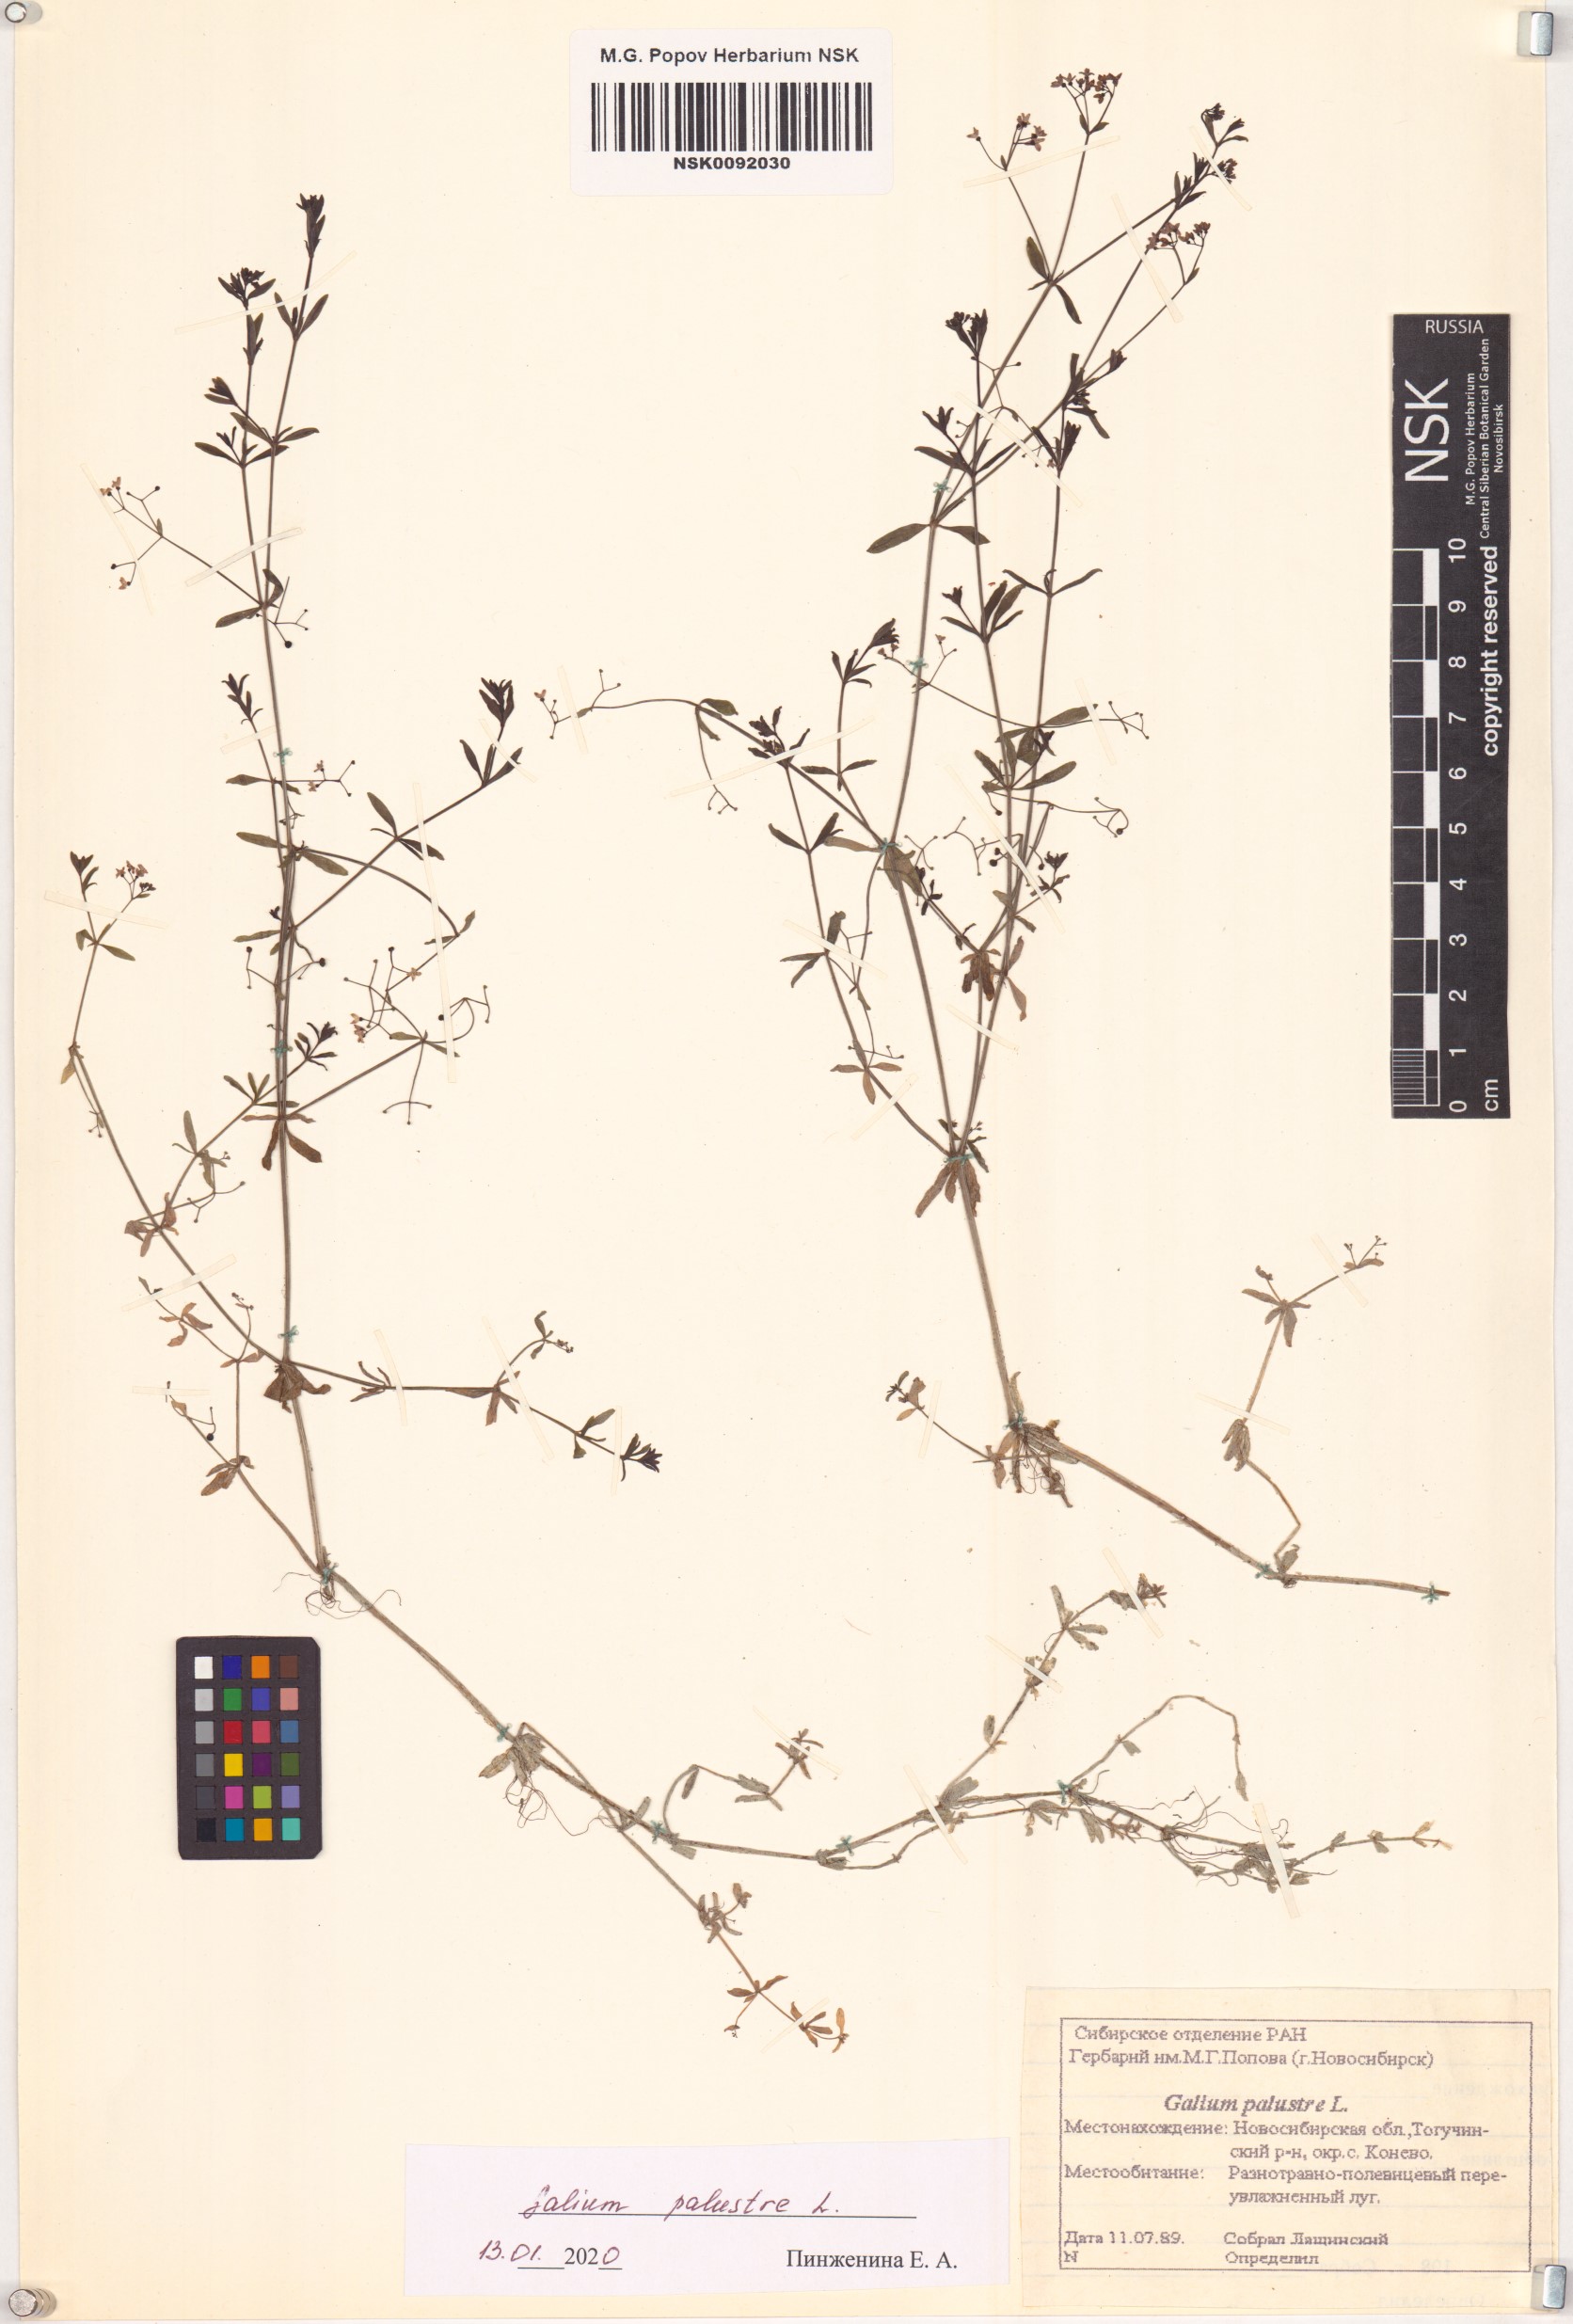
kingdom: Plantae
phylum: Tracheophyta
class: Magnoliopsida
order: Gentianales
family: Rubiaceae
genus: Galium
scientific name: Galium palustre
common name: Common marsh-bedstraw
